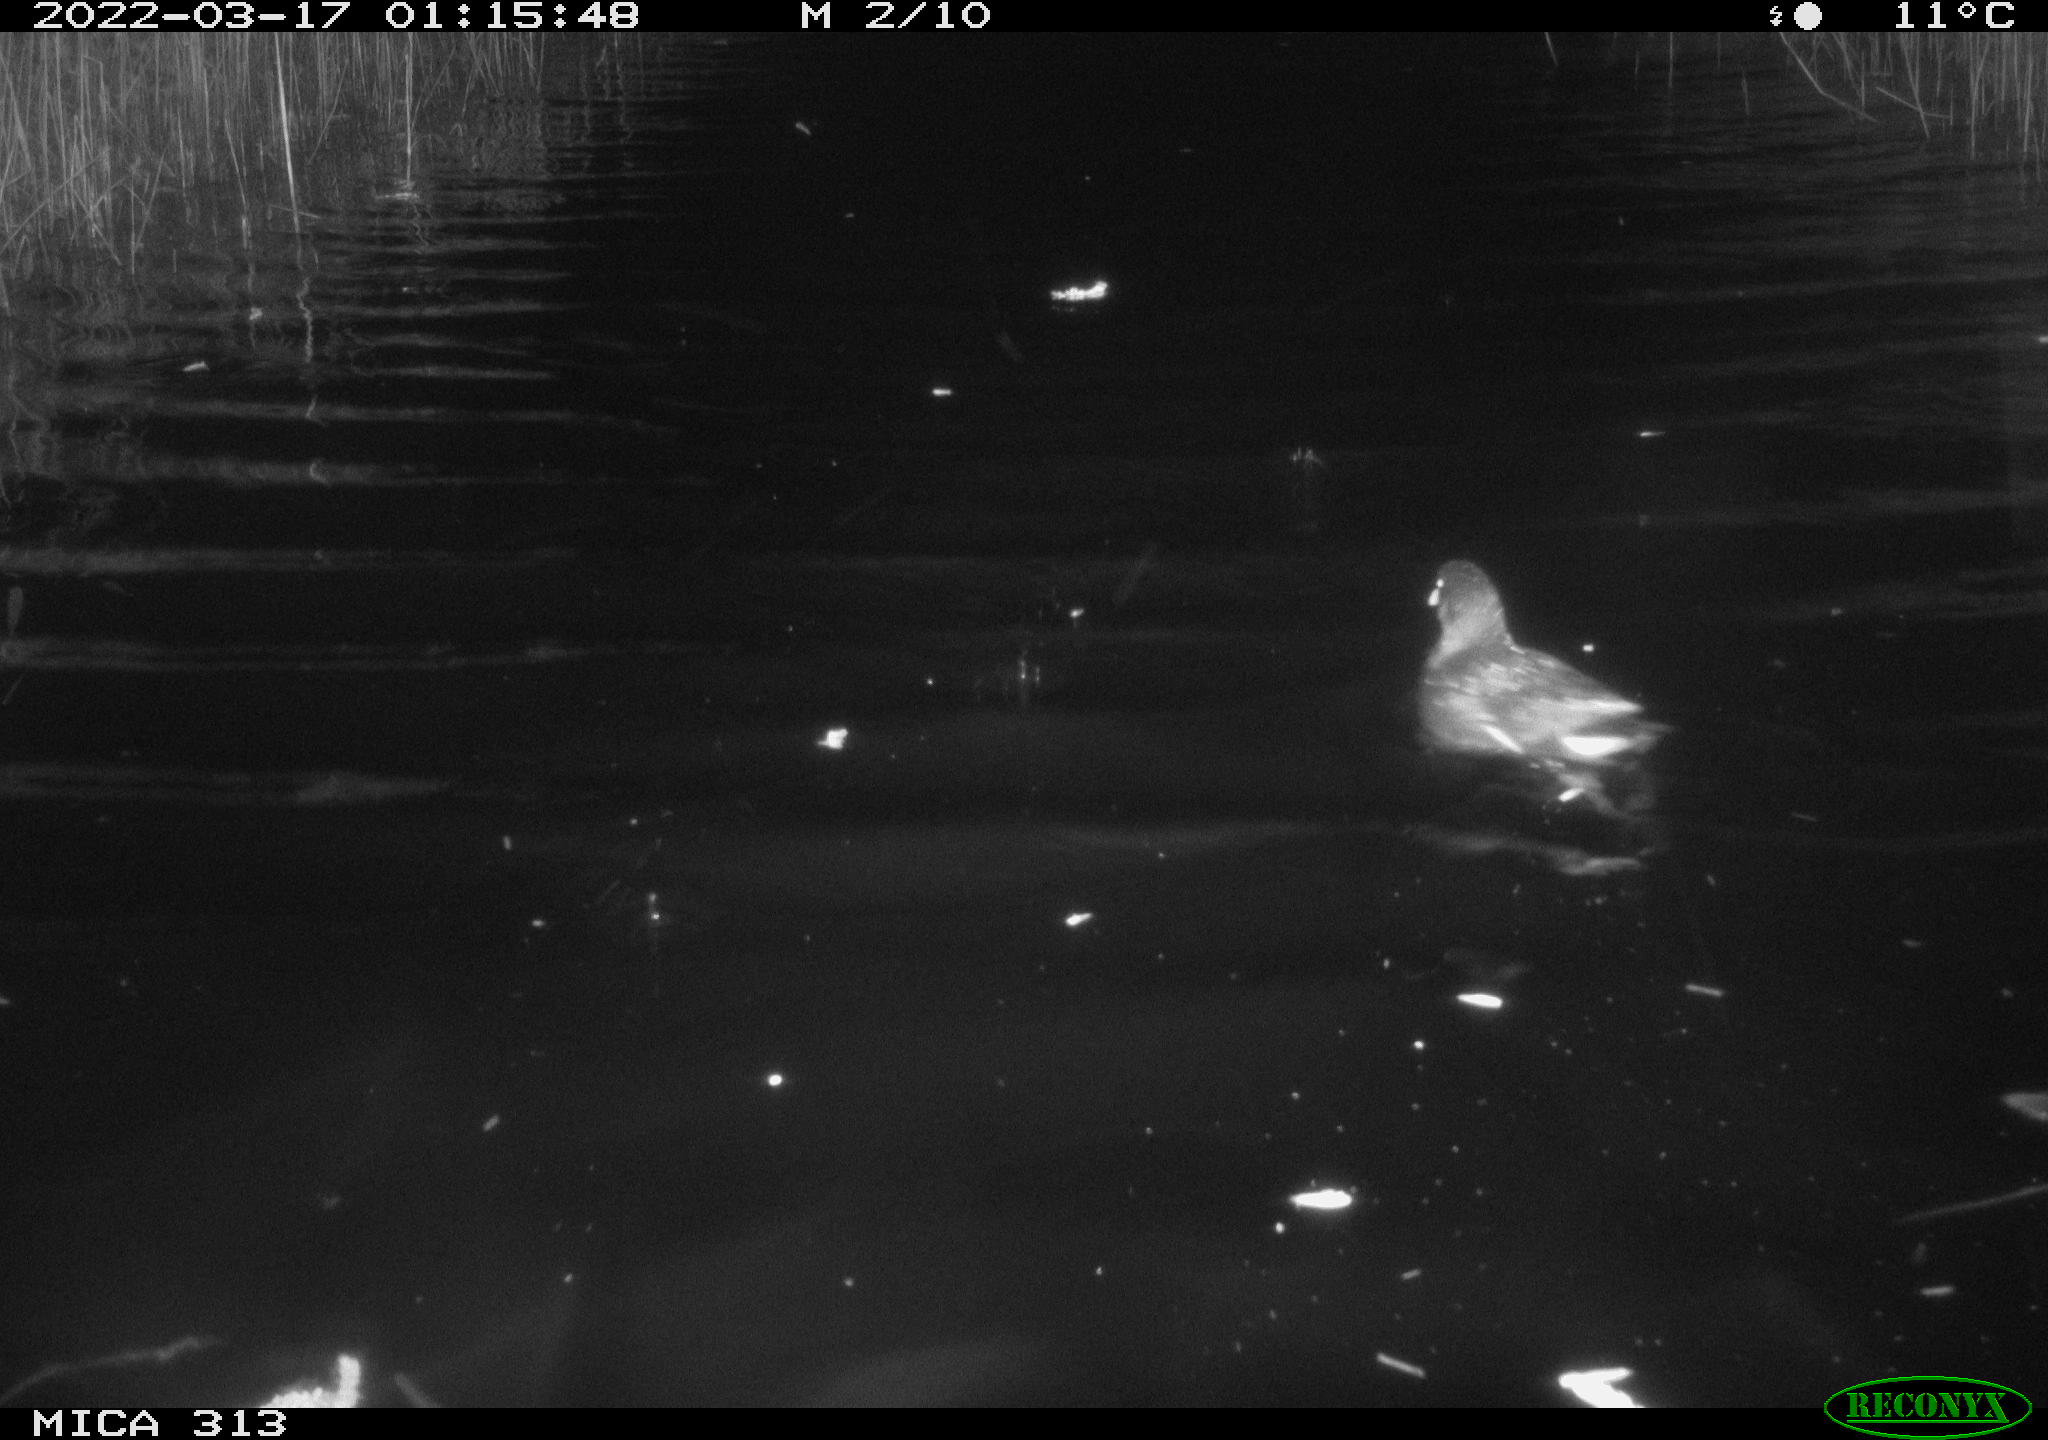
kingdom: Animalia
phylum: Chordata
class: Aves
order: Anseriformes
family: Anatidae
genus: Mareca
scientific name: Mareca strepera
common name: Gadwall
